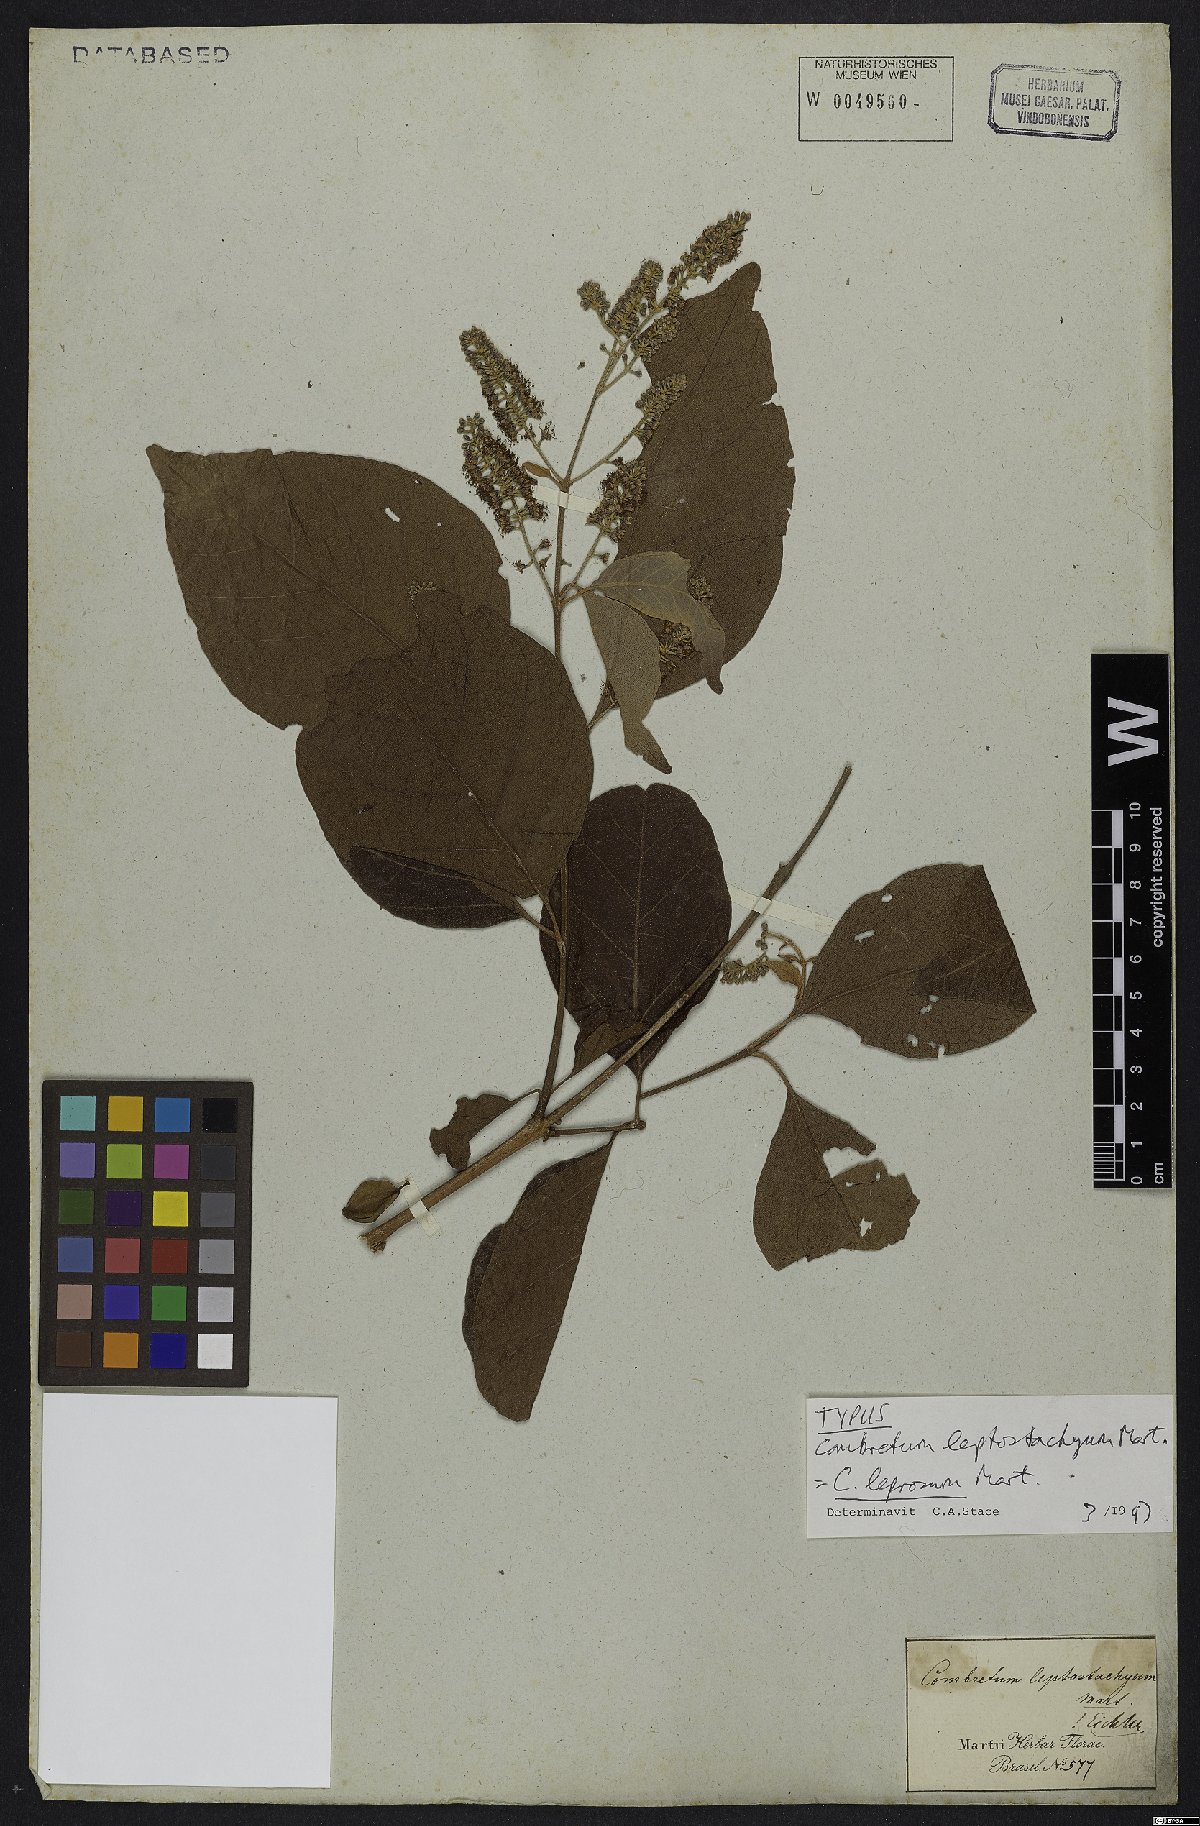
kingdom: Plantae
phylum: Tracheophyta
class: Magnoliopsida
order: Myrtales
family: Combretaceae
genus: Combretum
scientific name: Combretum leprosum
